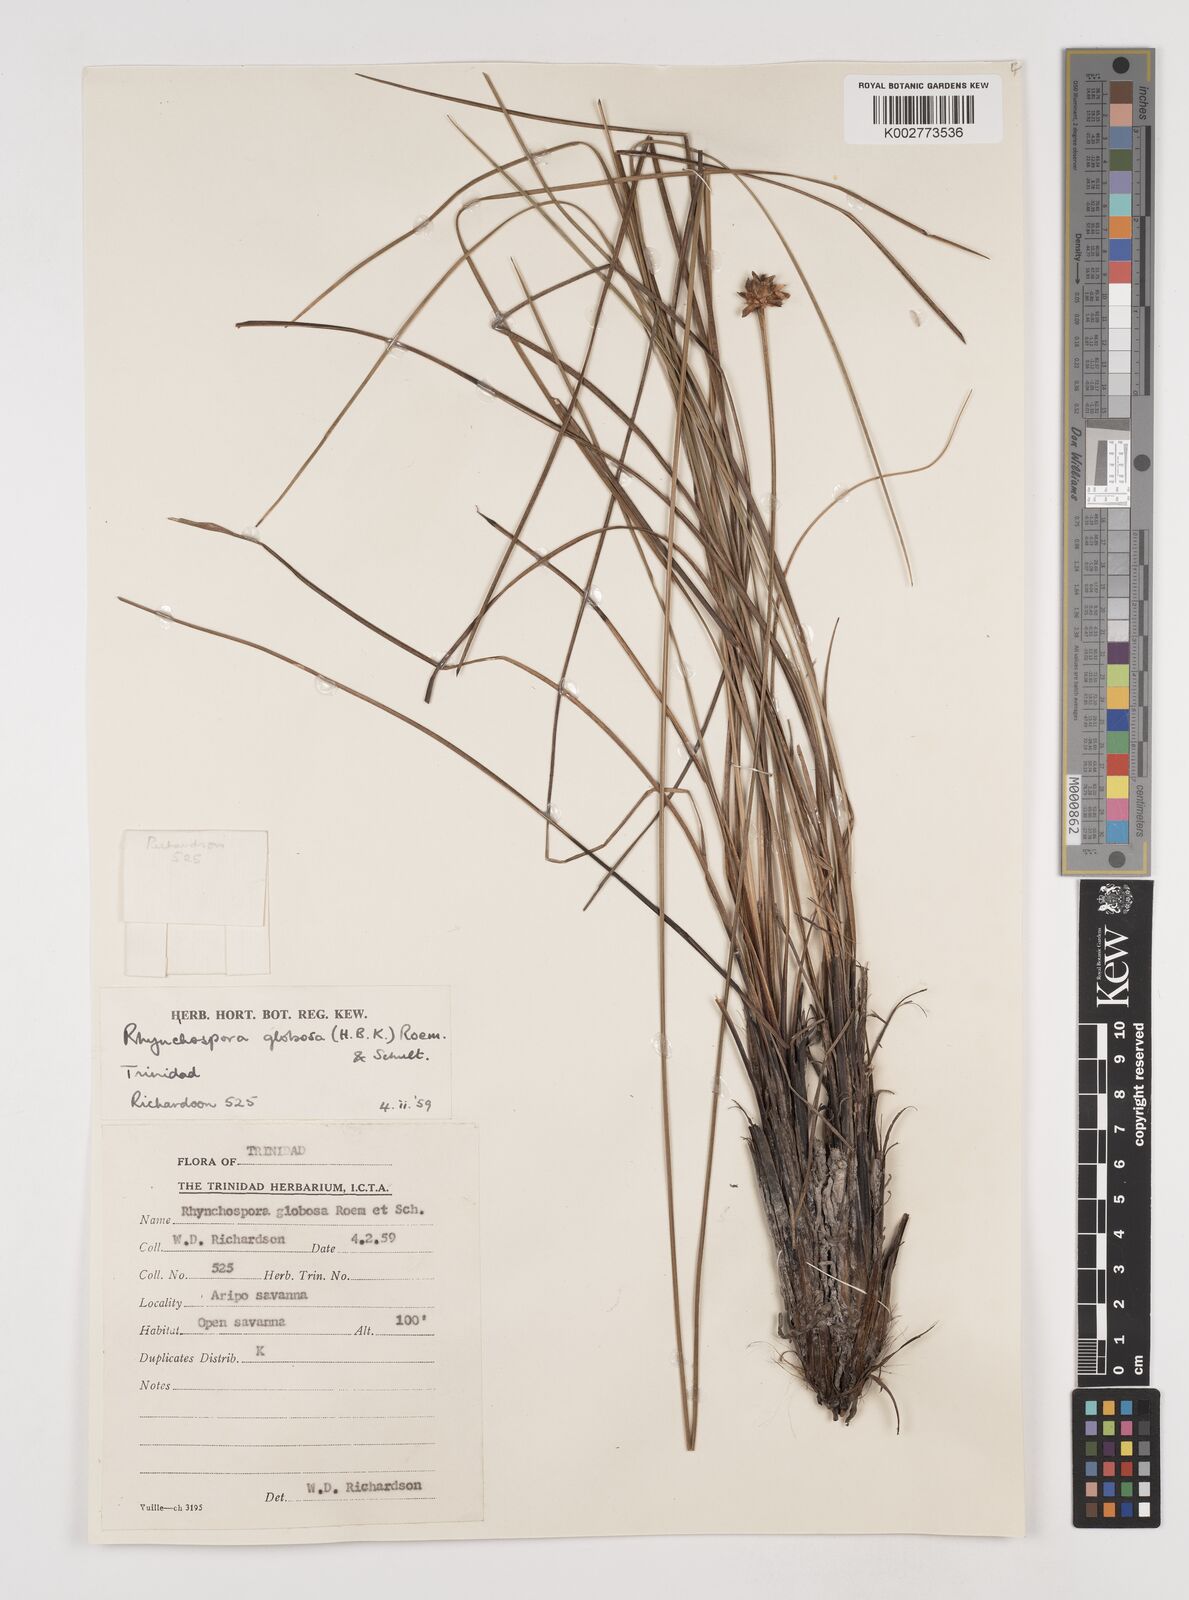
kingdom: Plantae
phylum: Tracheophyta
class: Liliopsida
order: Poales
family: Cyperaceae
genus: Rhynchospora
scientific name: Rhynchospora globosa
